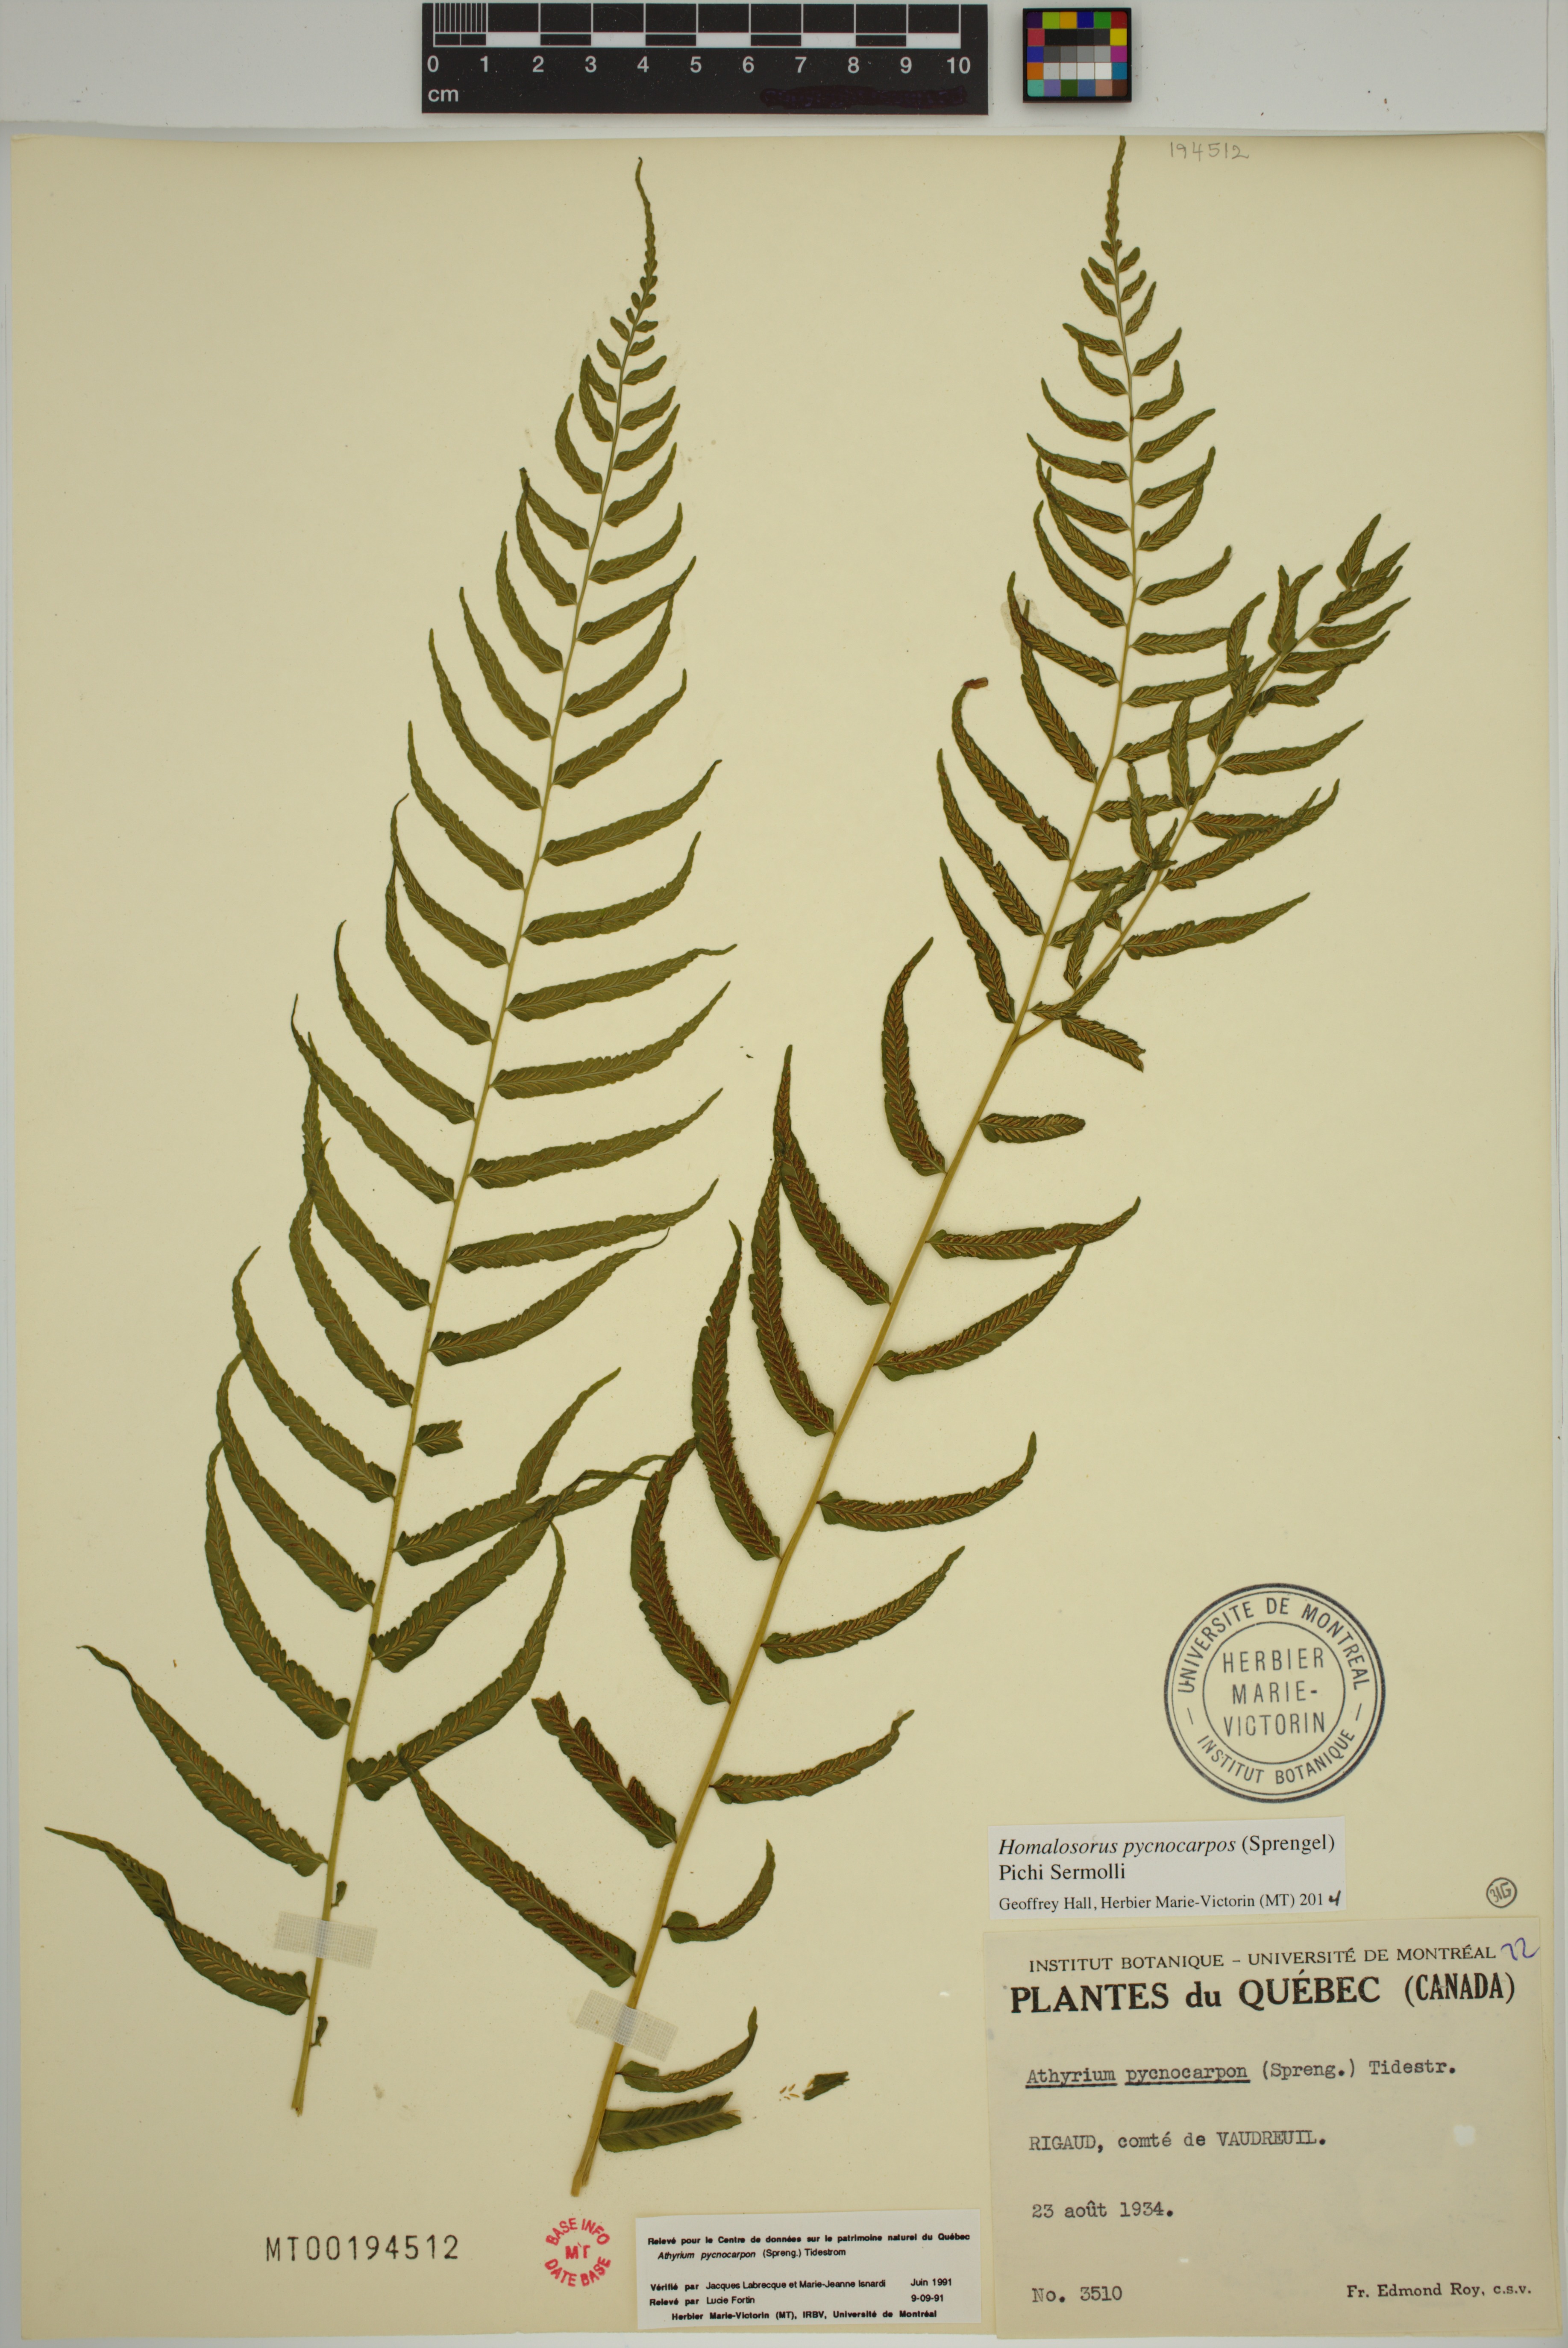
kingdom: Plantae
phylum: Tracheophyta
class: Polypodiopsida
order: Polypodiales
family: Diplaziopsidaceae
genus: Homalosorus
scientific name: Homalosorus pycnocarpos
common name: Glade fern
